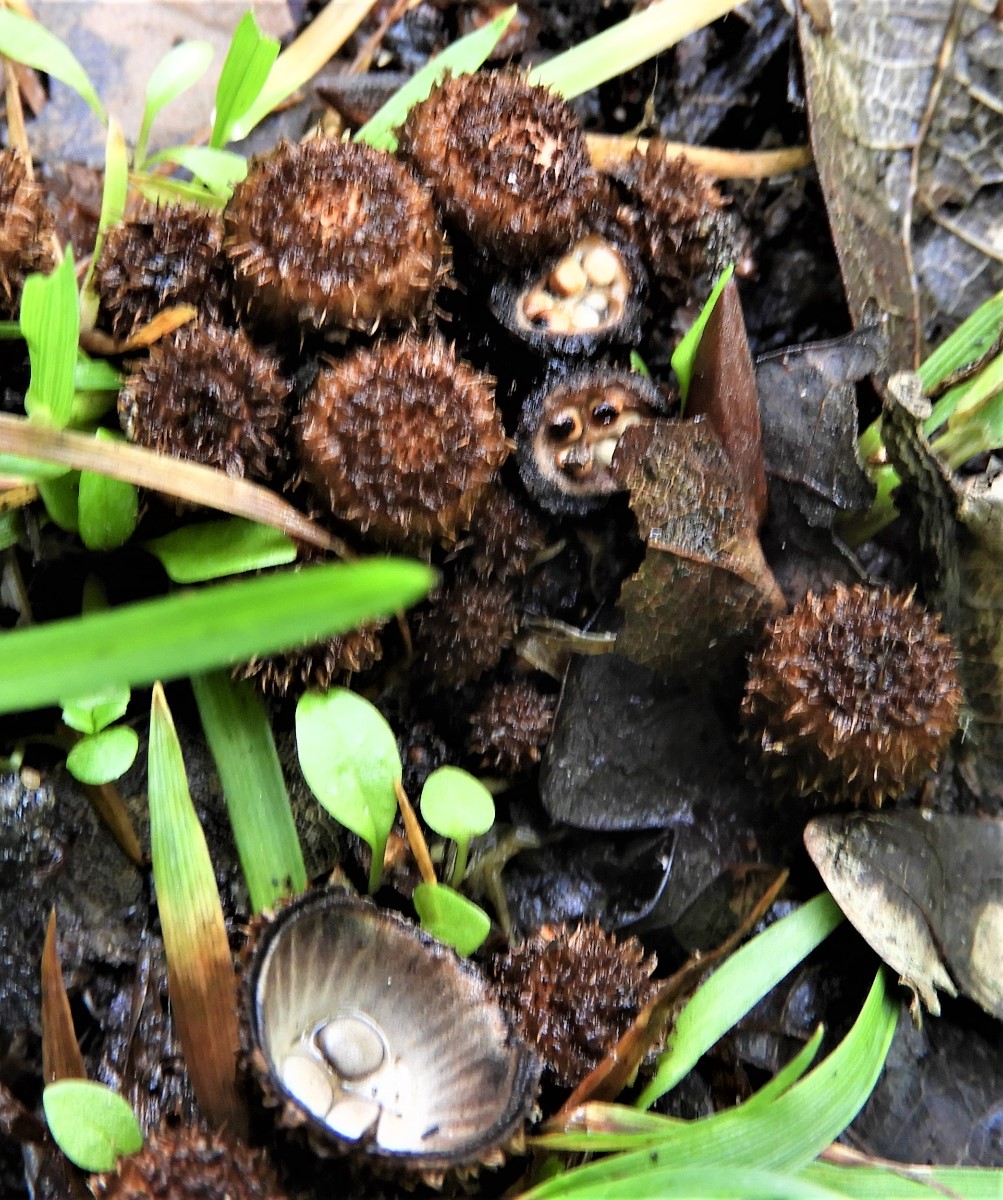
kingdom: Fungi
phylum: Basidiomycota
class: Agaricomycetes
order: Agaricales
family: Agaricaceae
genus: Cyathus
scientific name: Cyathus striatus
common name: stribet redesvamp
